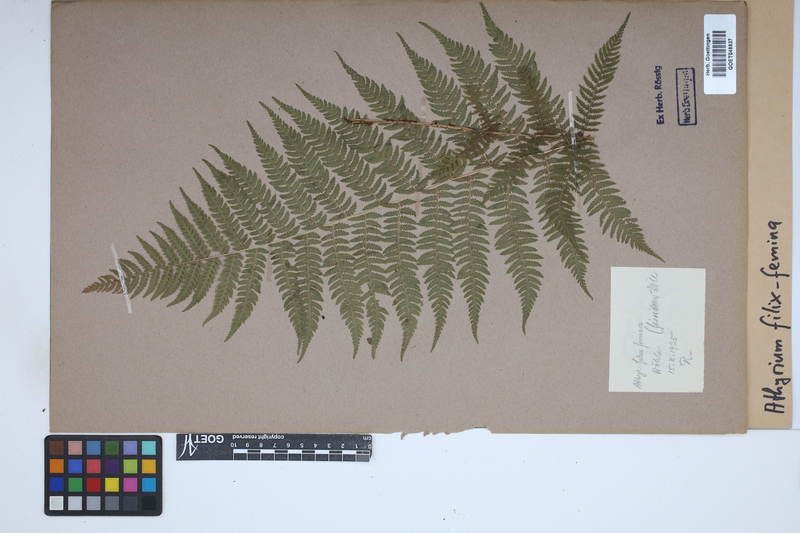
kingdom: Plantae
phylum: Tracheophyta
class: Polypodiopsida
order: Polypodiales
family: Athyriaceae
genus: Athyrium
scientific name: Athyrium filix-femina
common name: Lady fern
